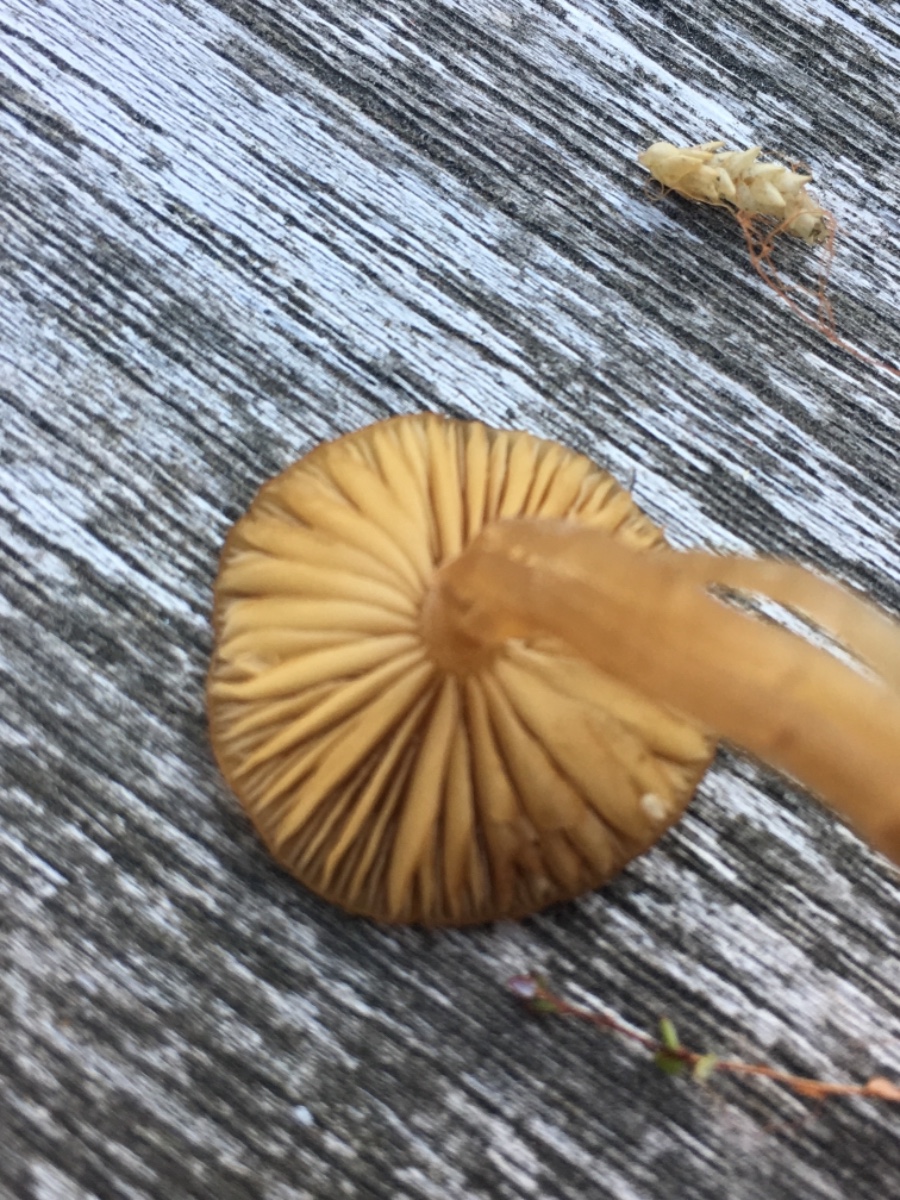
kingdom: Fungi
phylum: Basidiomycota
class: Agaricomycetes
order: Agaricales
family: Hymenogastraceae
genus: Galerina
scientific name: Galerina hybrida
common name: hængesæk-hjelmhat
